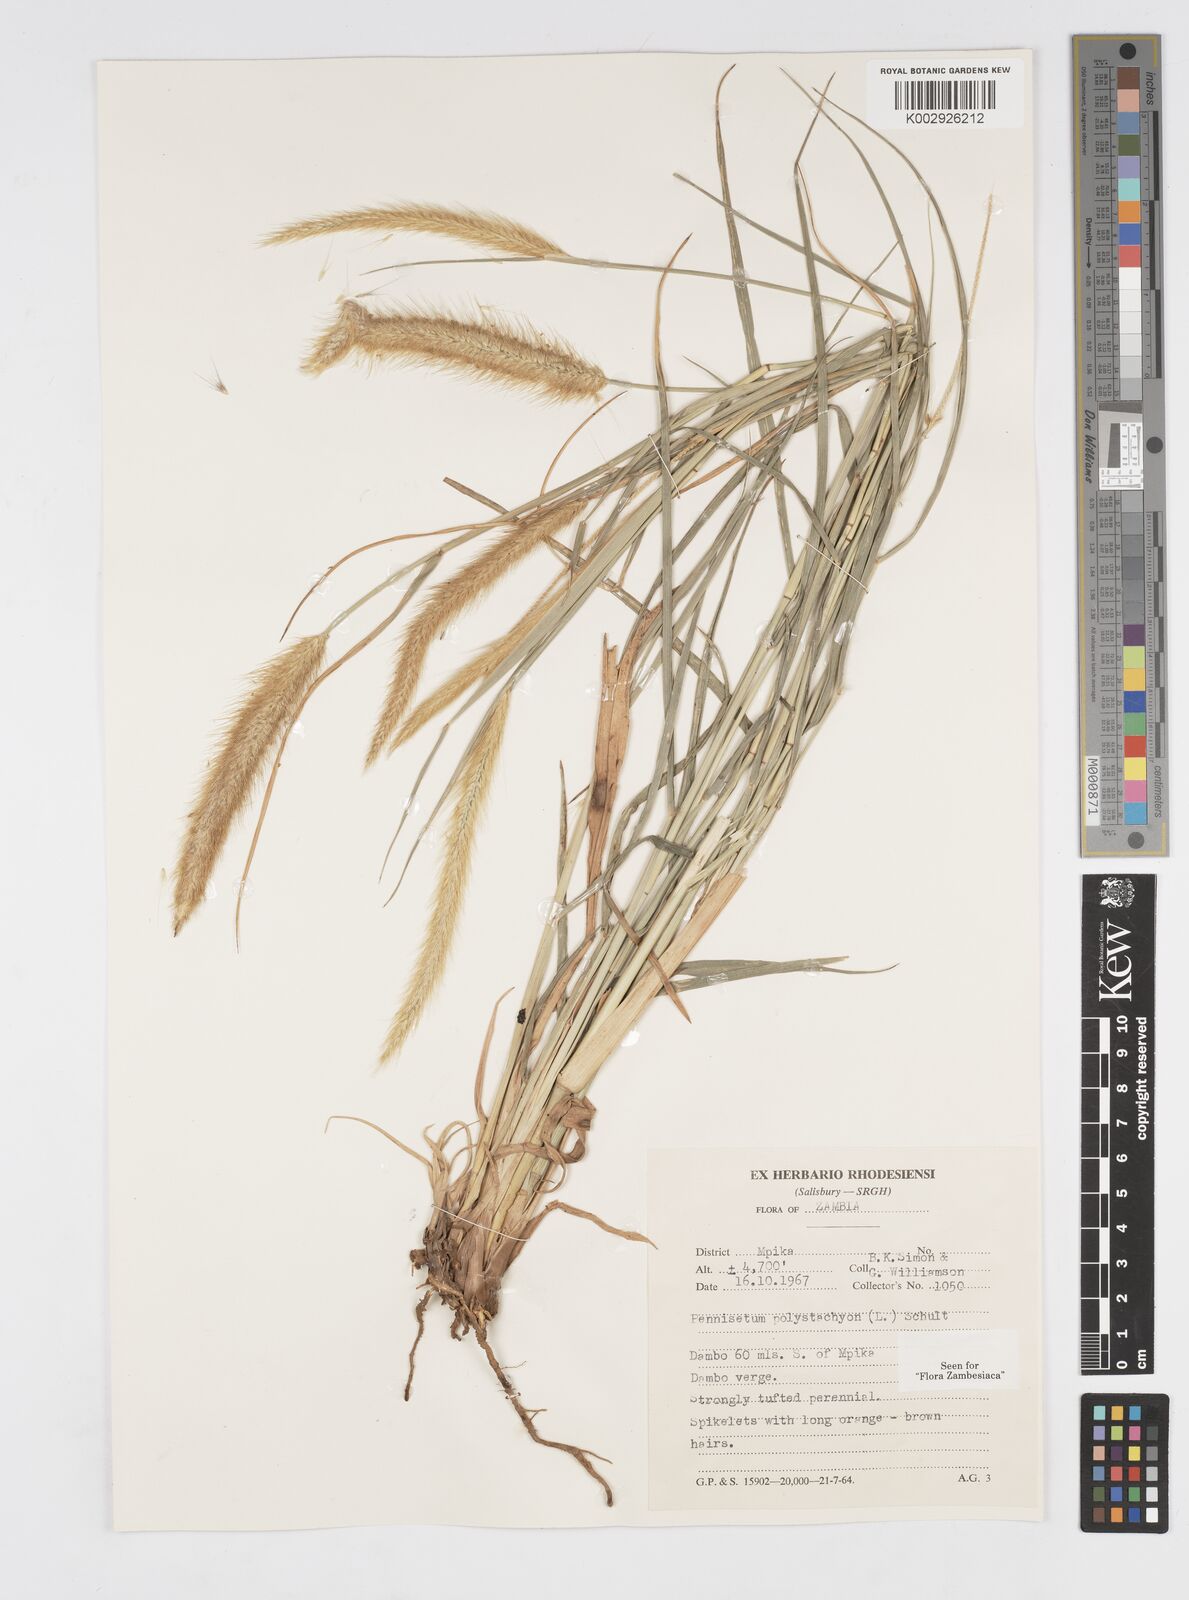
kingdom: Plantae
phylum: Tracheophyta
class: Liliopsida
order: Poales
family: Poaceae
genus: Setaria
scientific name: Setaria parviflora
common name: Knotroot bristle-grass
